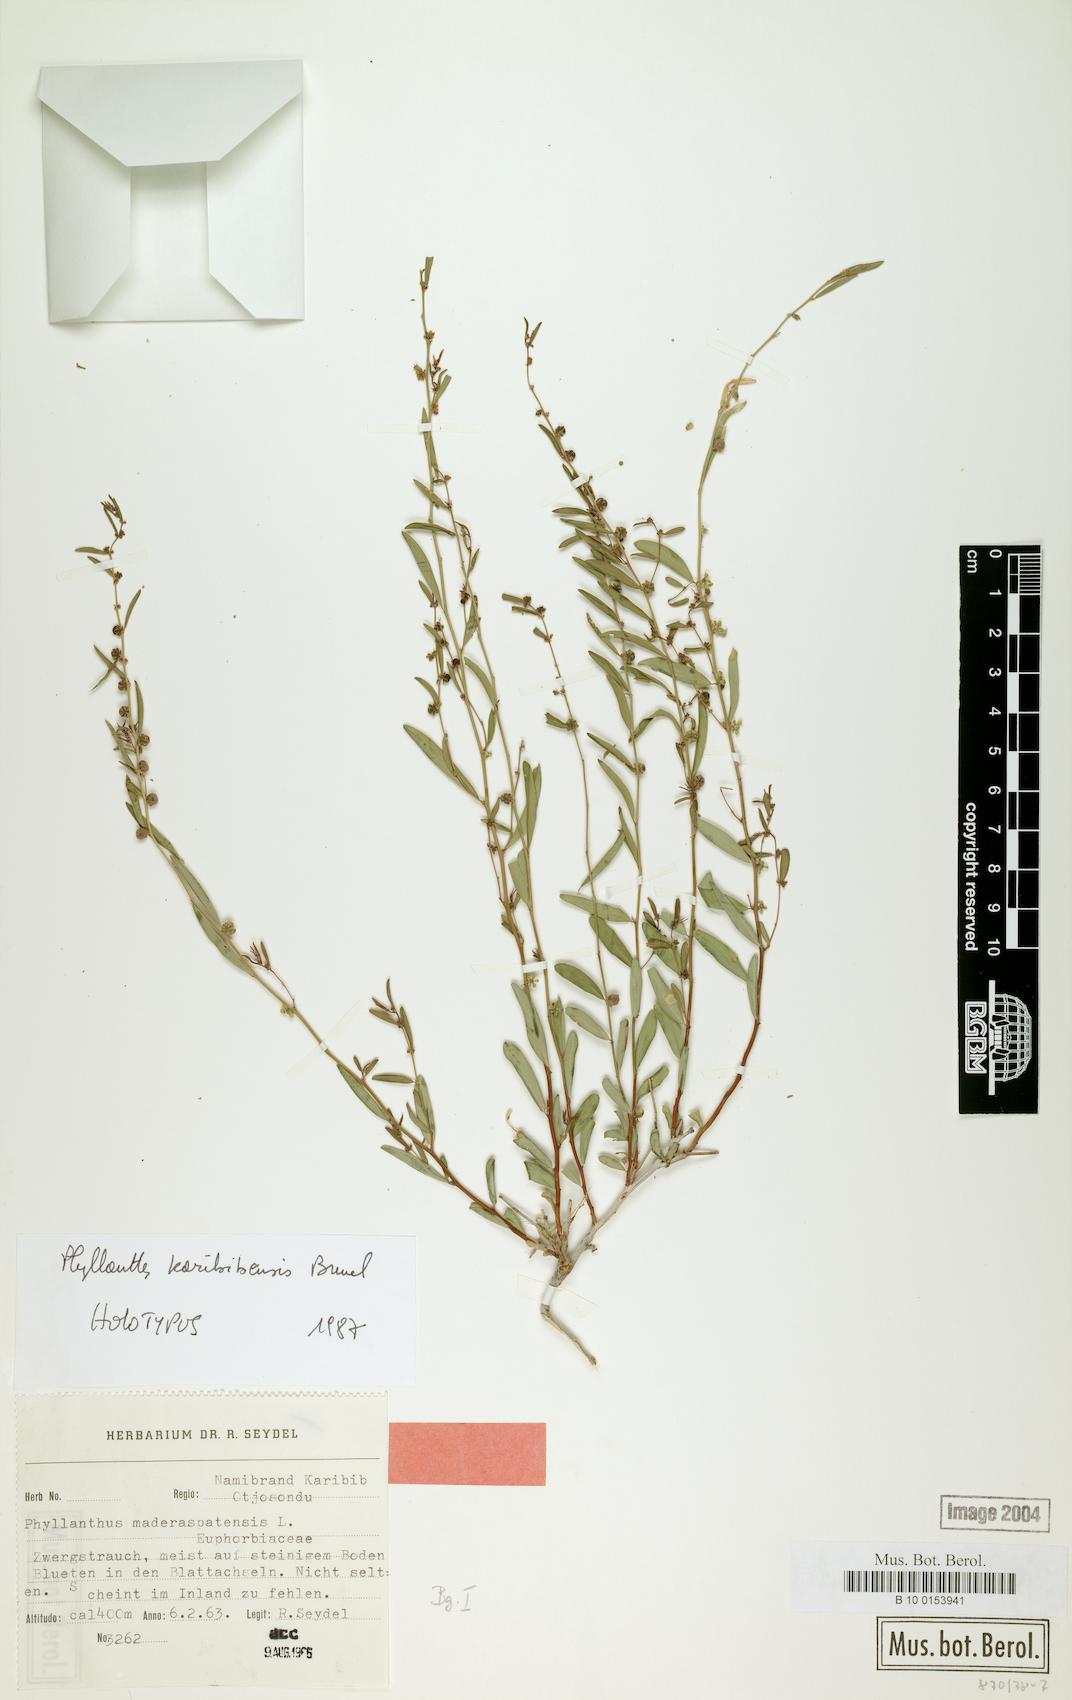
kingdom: Plantae
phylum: Tracheophyta
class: Magnoliopsida
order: Malpighiales
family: Phyllanthaceae
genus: Phyllanthus
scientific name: Phyllanthus karibibensis
